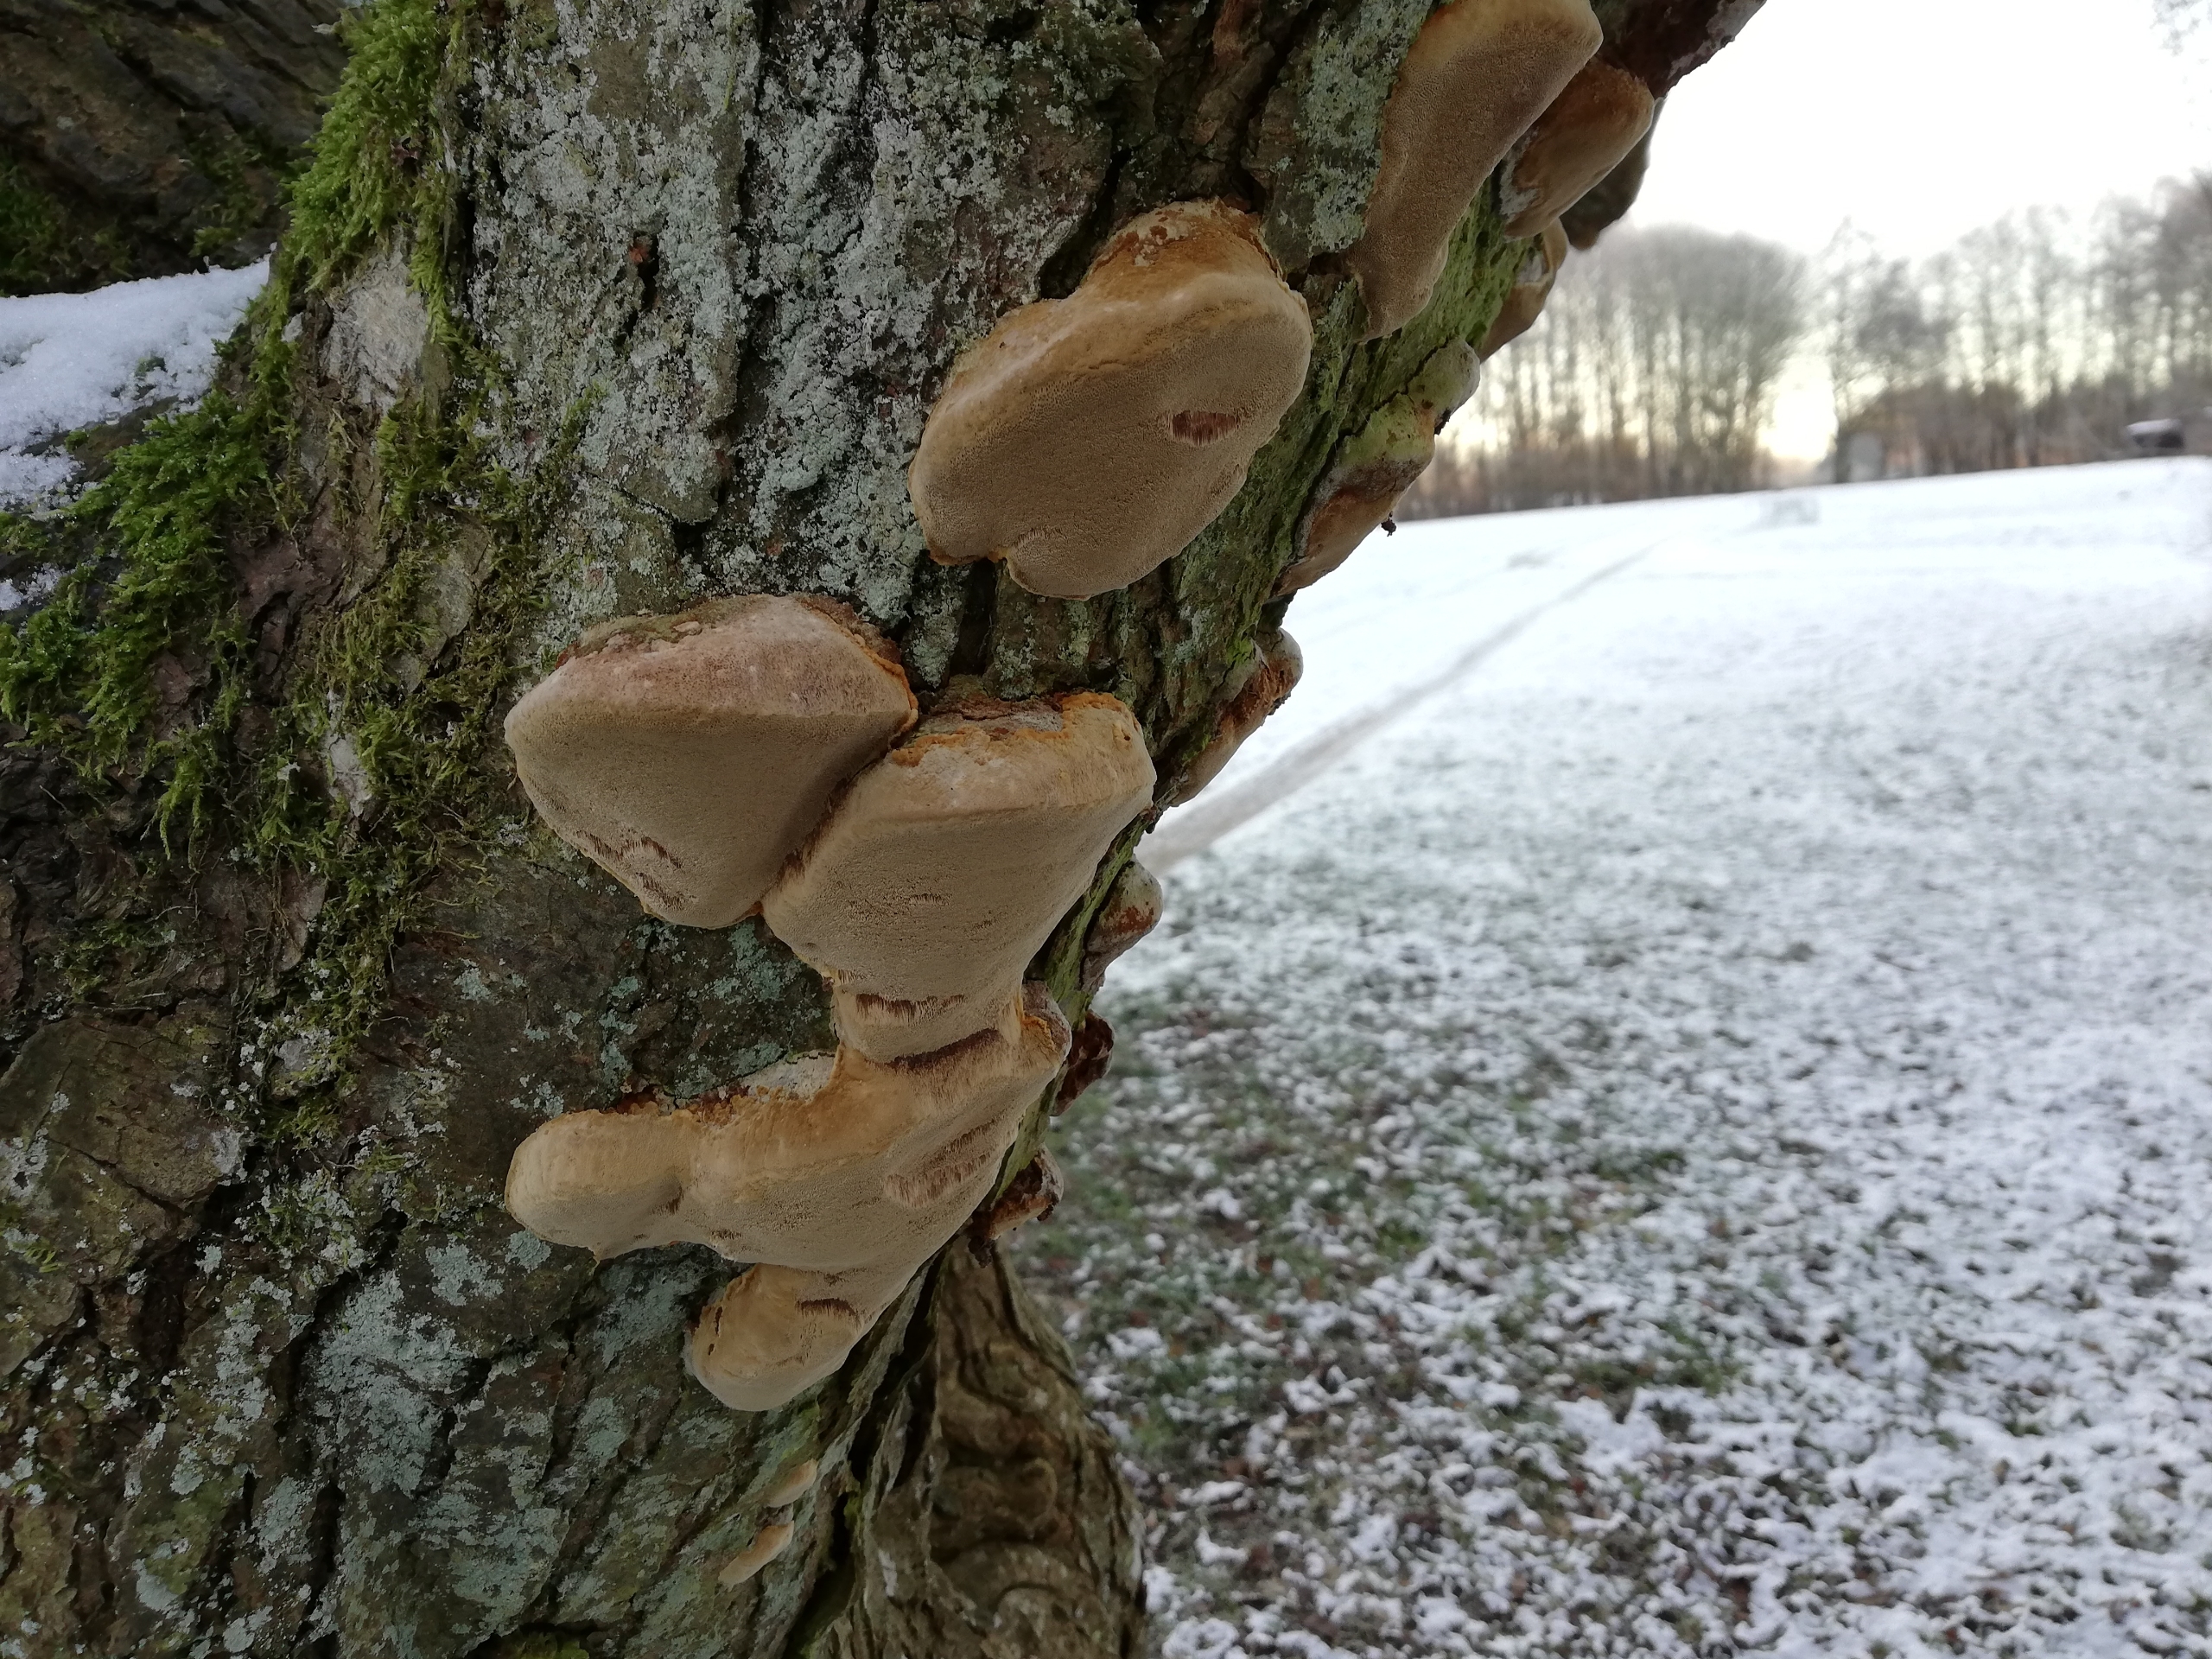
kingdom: Fungi
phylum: Basidiomycota
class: Agaricomycetes
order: Hymenochaetales
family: Hymenochaetaceae
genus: Phellinus
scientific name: Phellinus pomaceus
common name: Blomme-ildporesvamp
